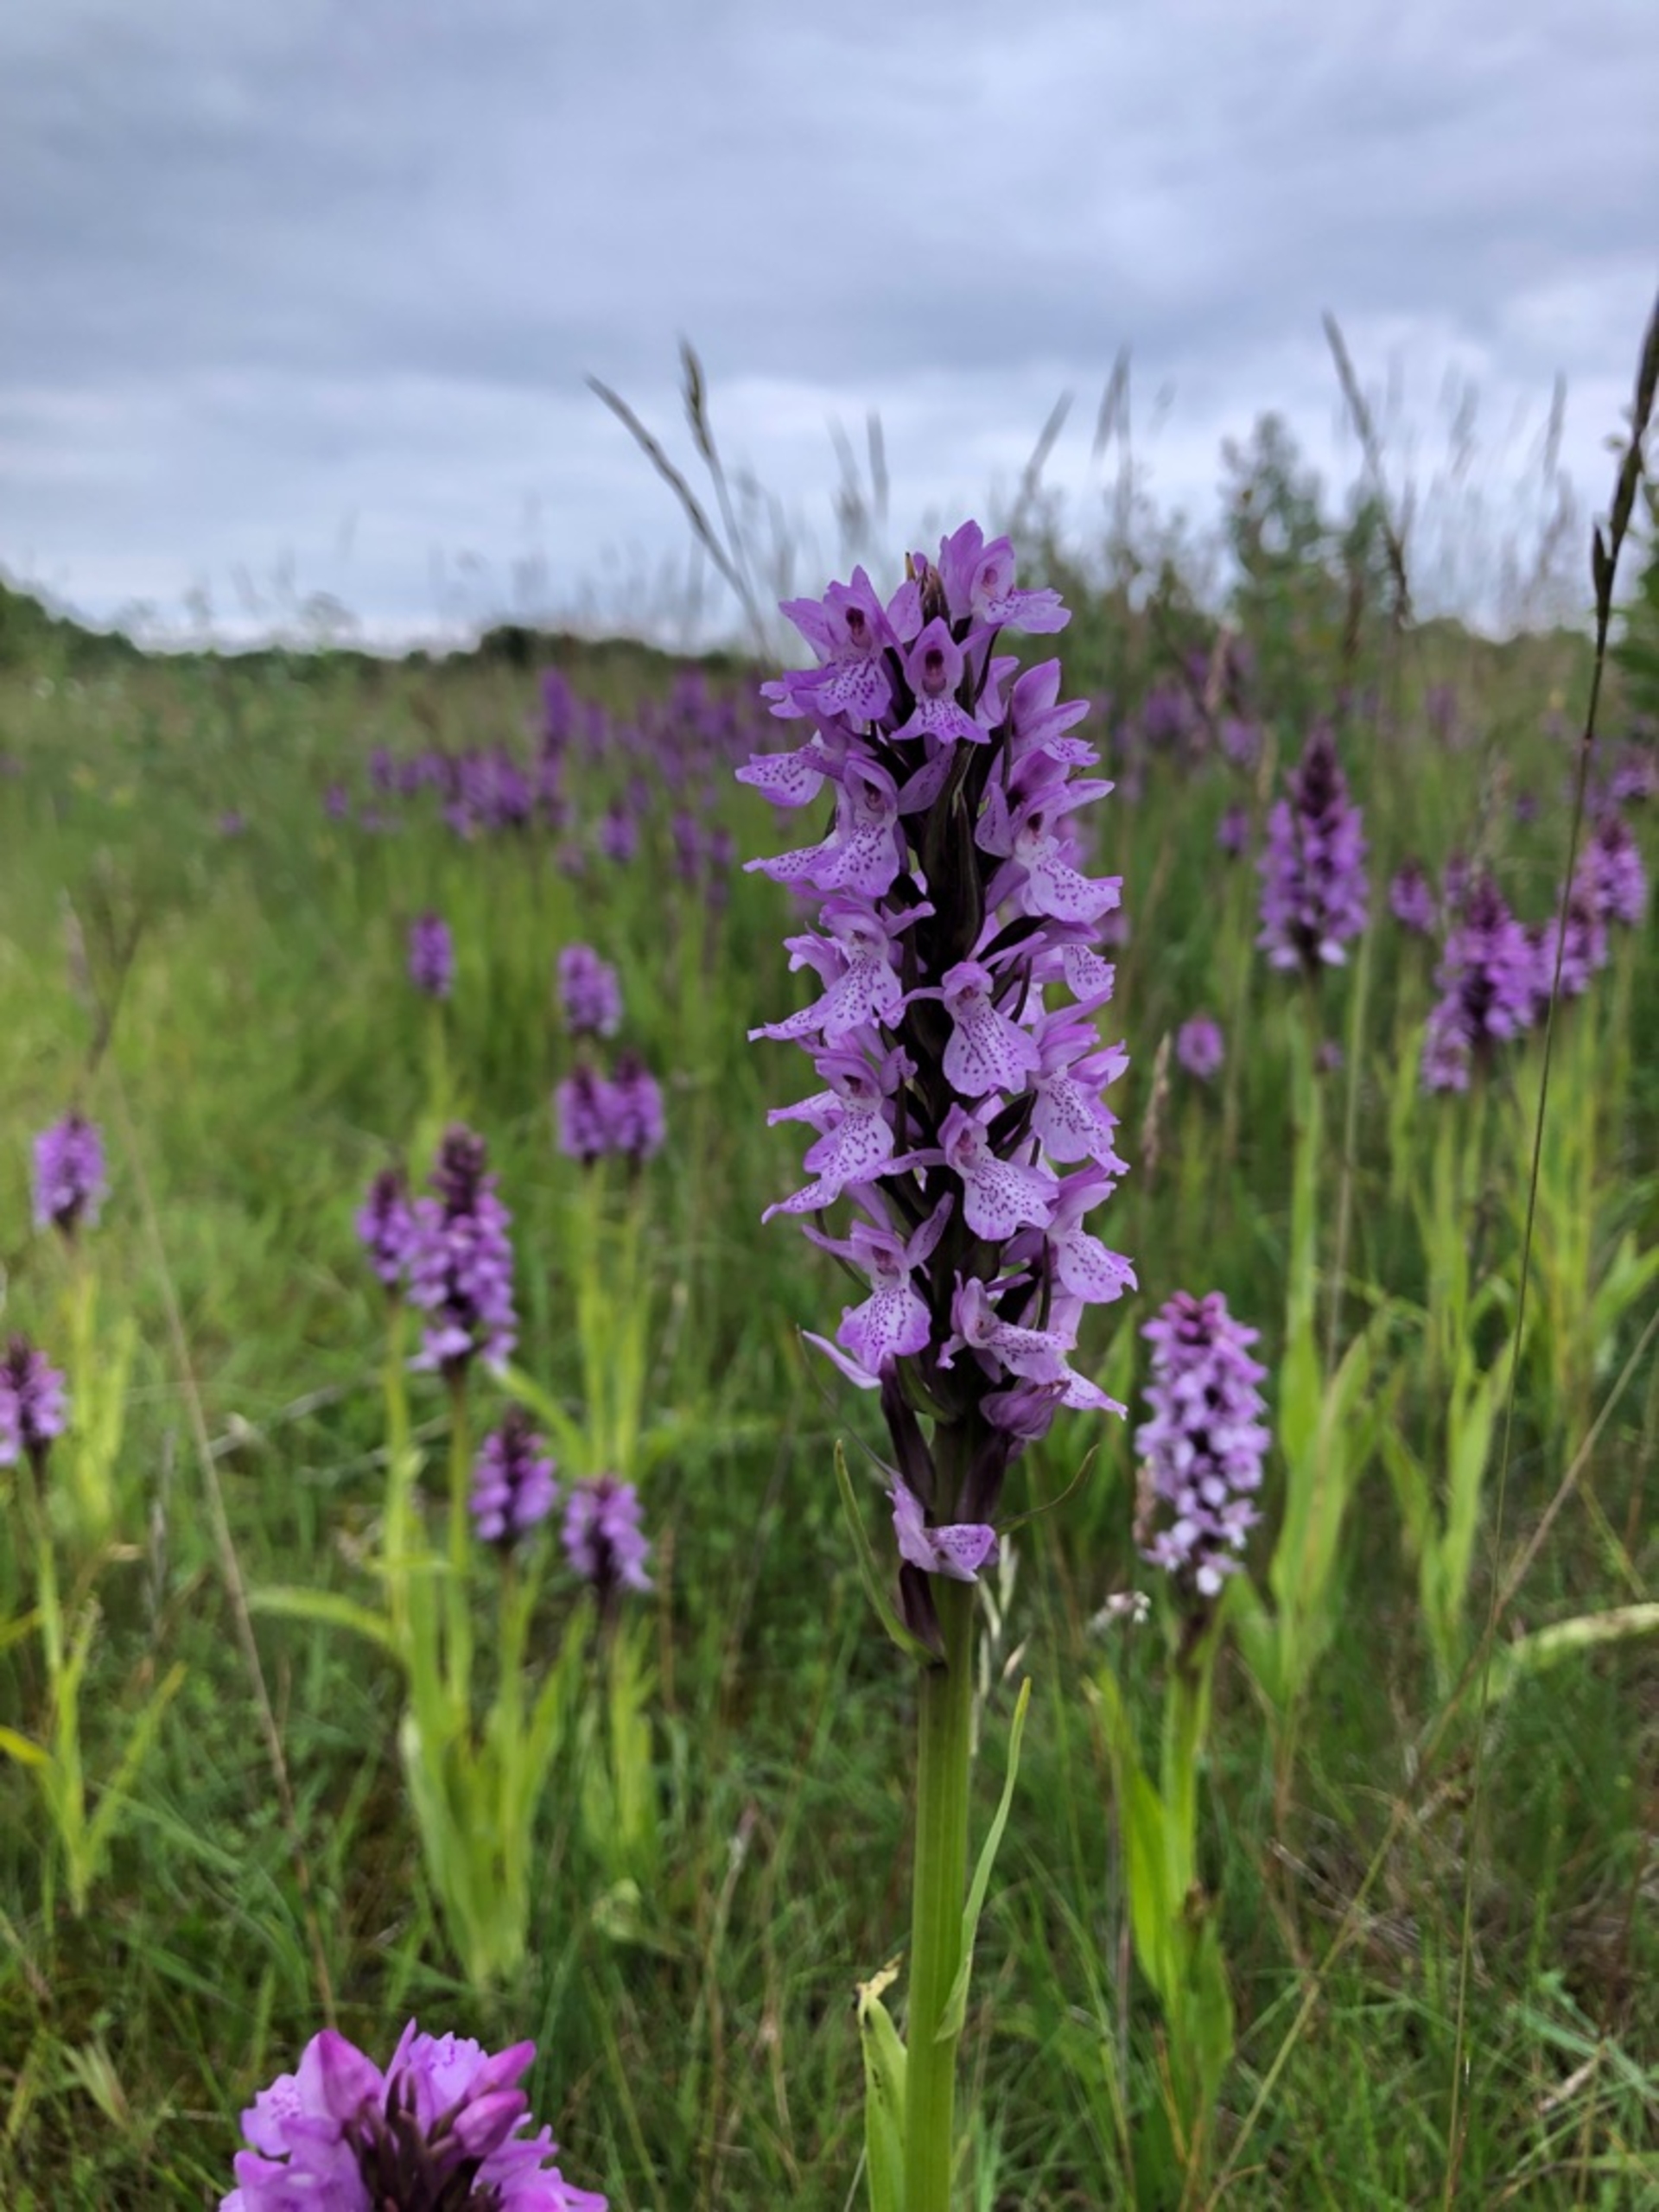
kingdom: Plantae
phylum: Tracheophyta
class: Liliopsida
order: Asparagales
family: Orchidaceae
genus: Dactylorhiza
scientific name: Dactylorhiza majalis
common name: Priklæbet gøgeurt
